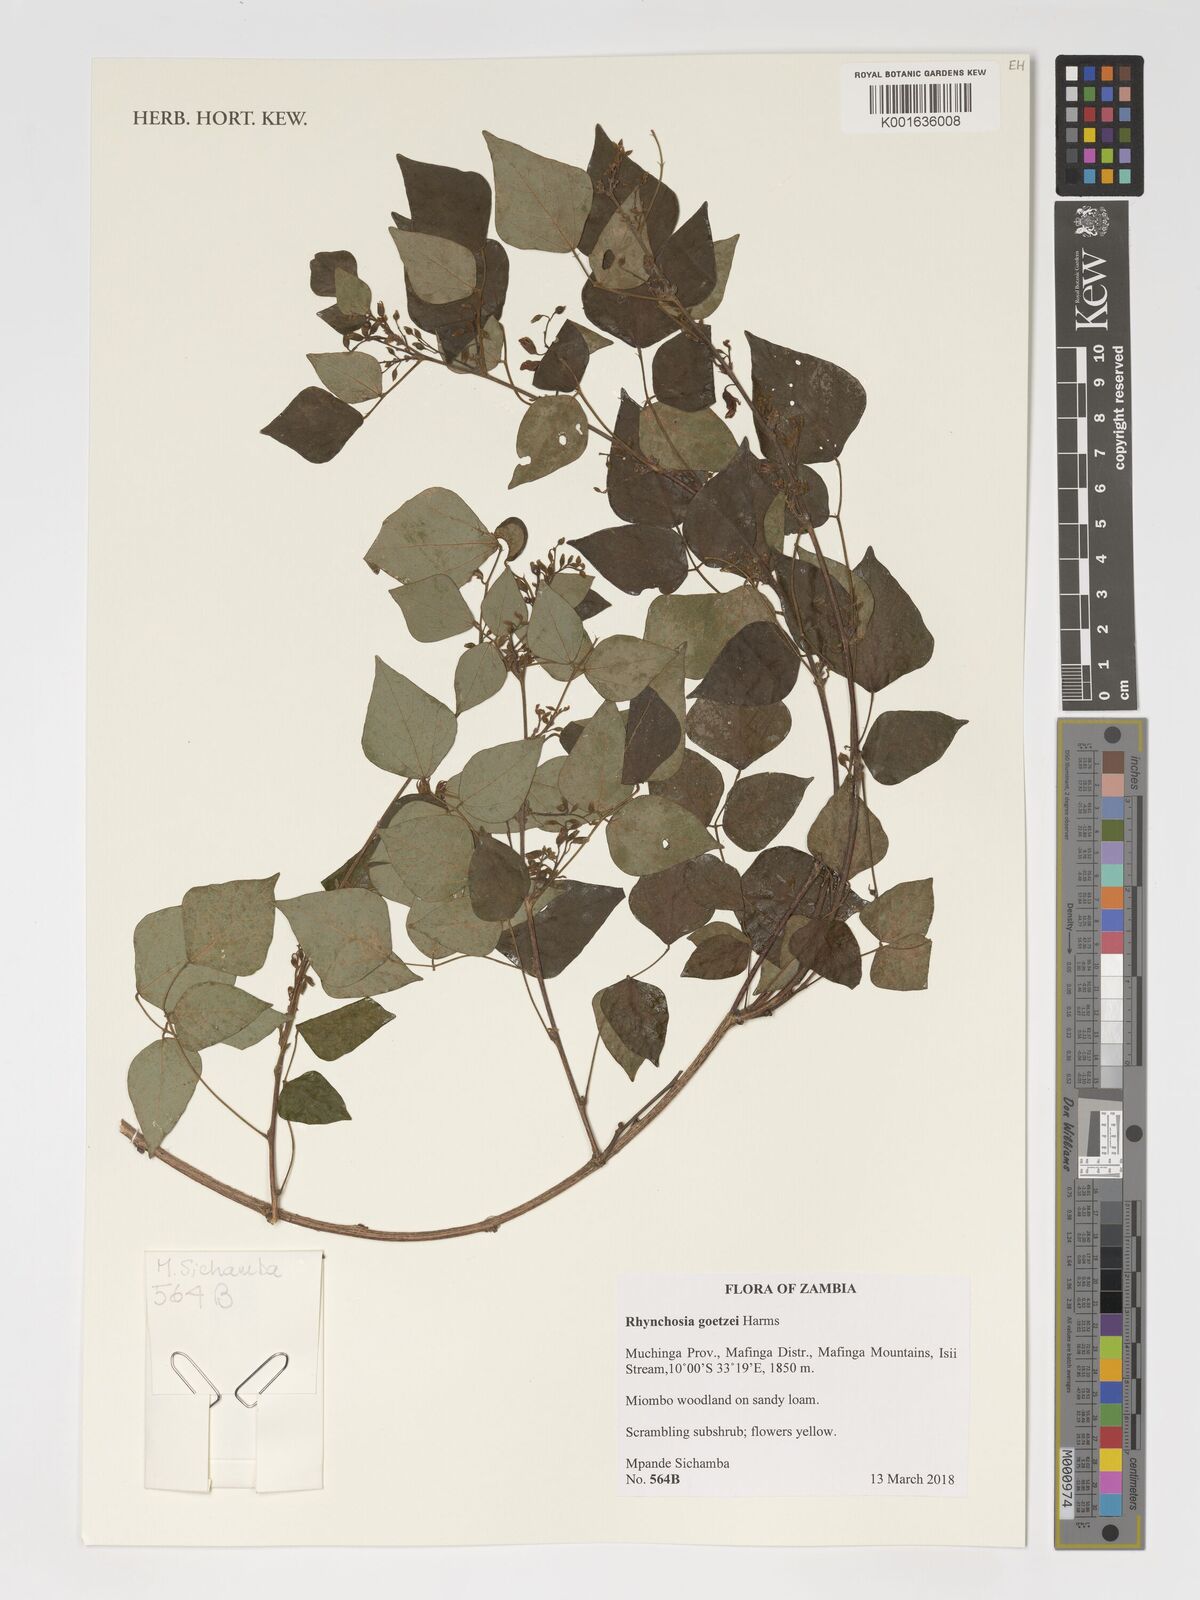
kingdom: Plantae
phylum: Tracheophyta
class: Magnoliopsida
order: Fabales
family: Fabaceae
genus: Rhynchosia
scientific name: Rhynchosia goetzei
